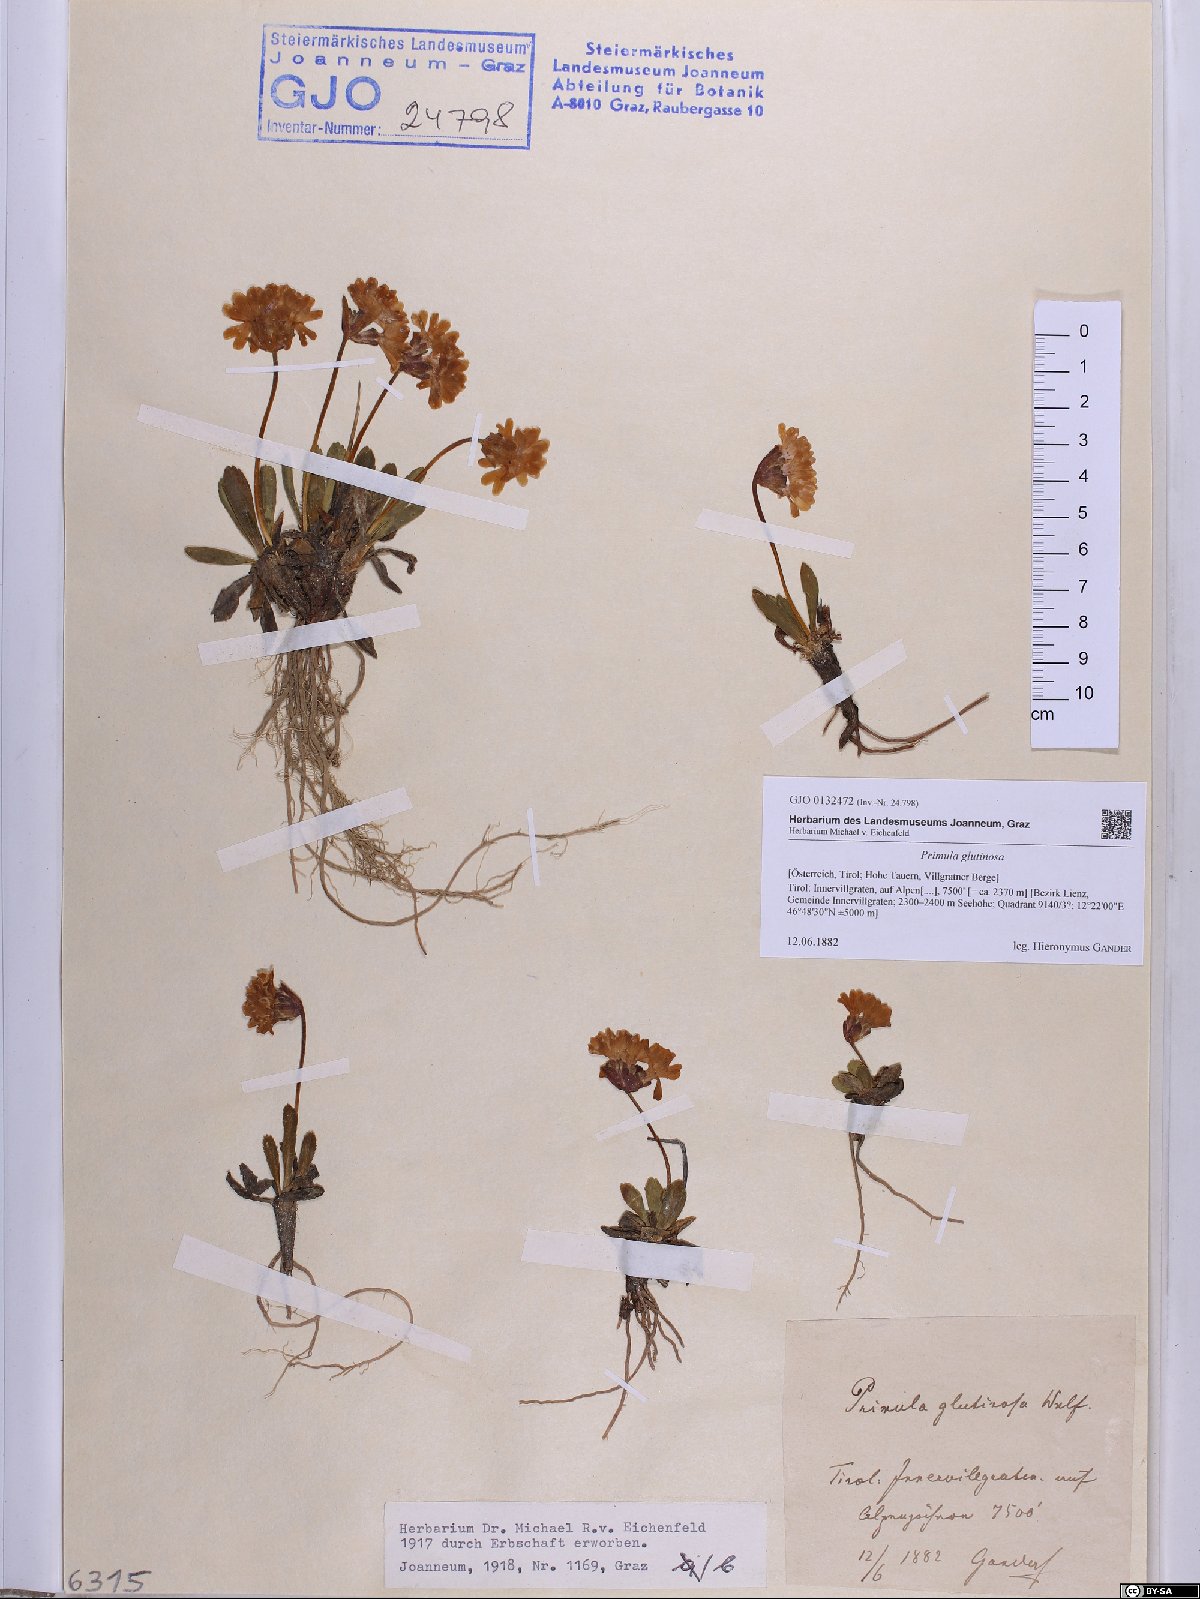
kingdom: Plantae
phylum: Tracheophyta
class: Magnoliopsida
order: Ericales
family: Primulaceae
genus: Primula
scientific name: Primula glutinosa
